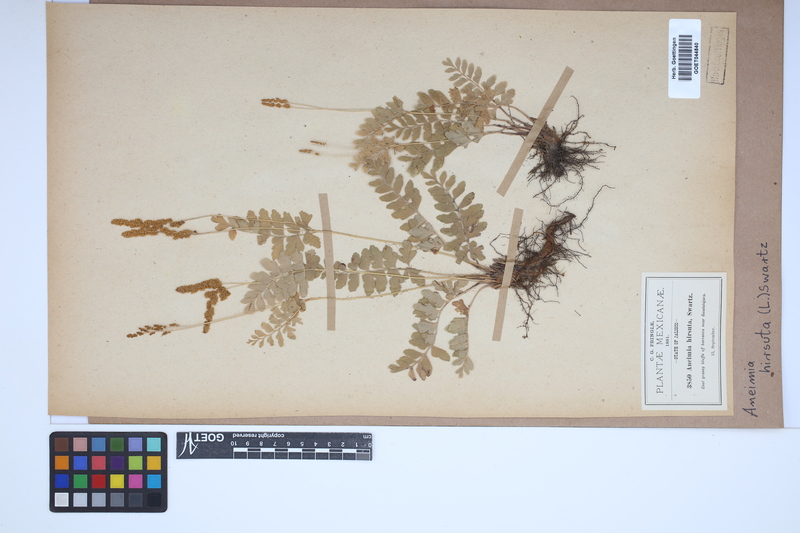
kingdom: Plantae
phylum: Tracheophyta
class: Polypodiopsida
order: Schizaeales
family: Anemiaceae
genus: Anemia
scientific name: Anemia hirsuta
